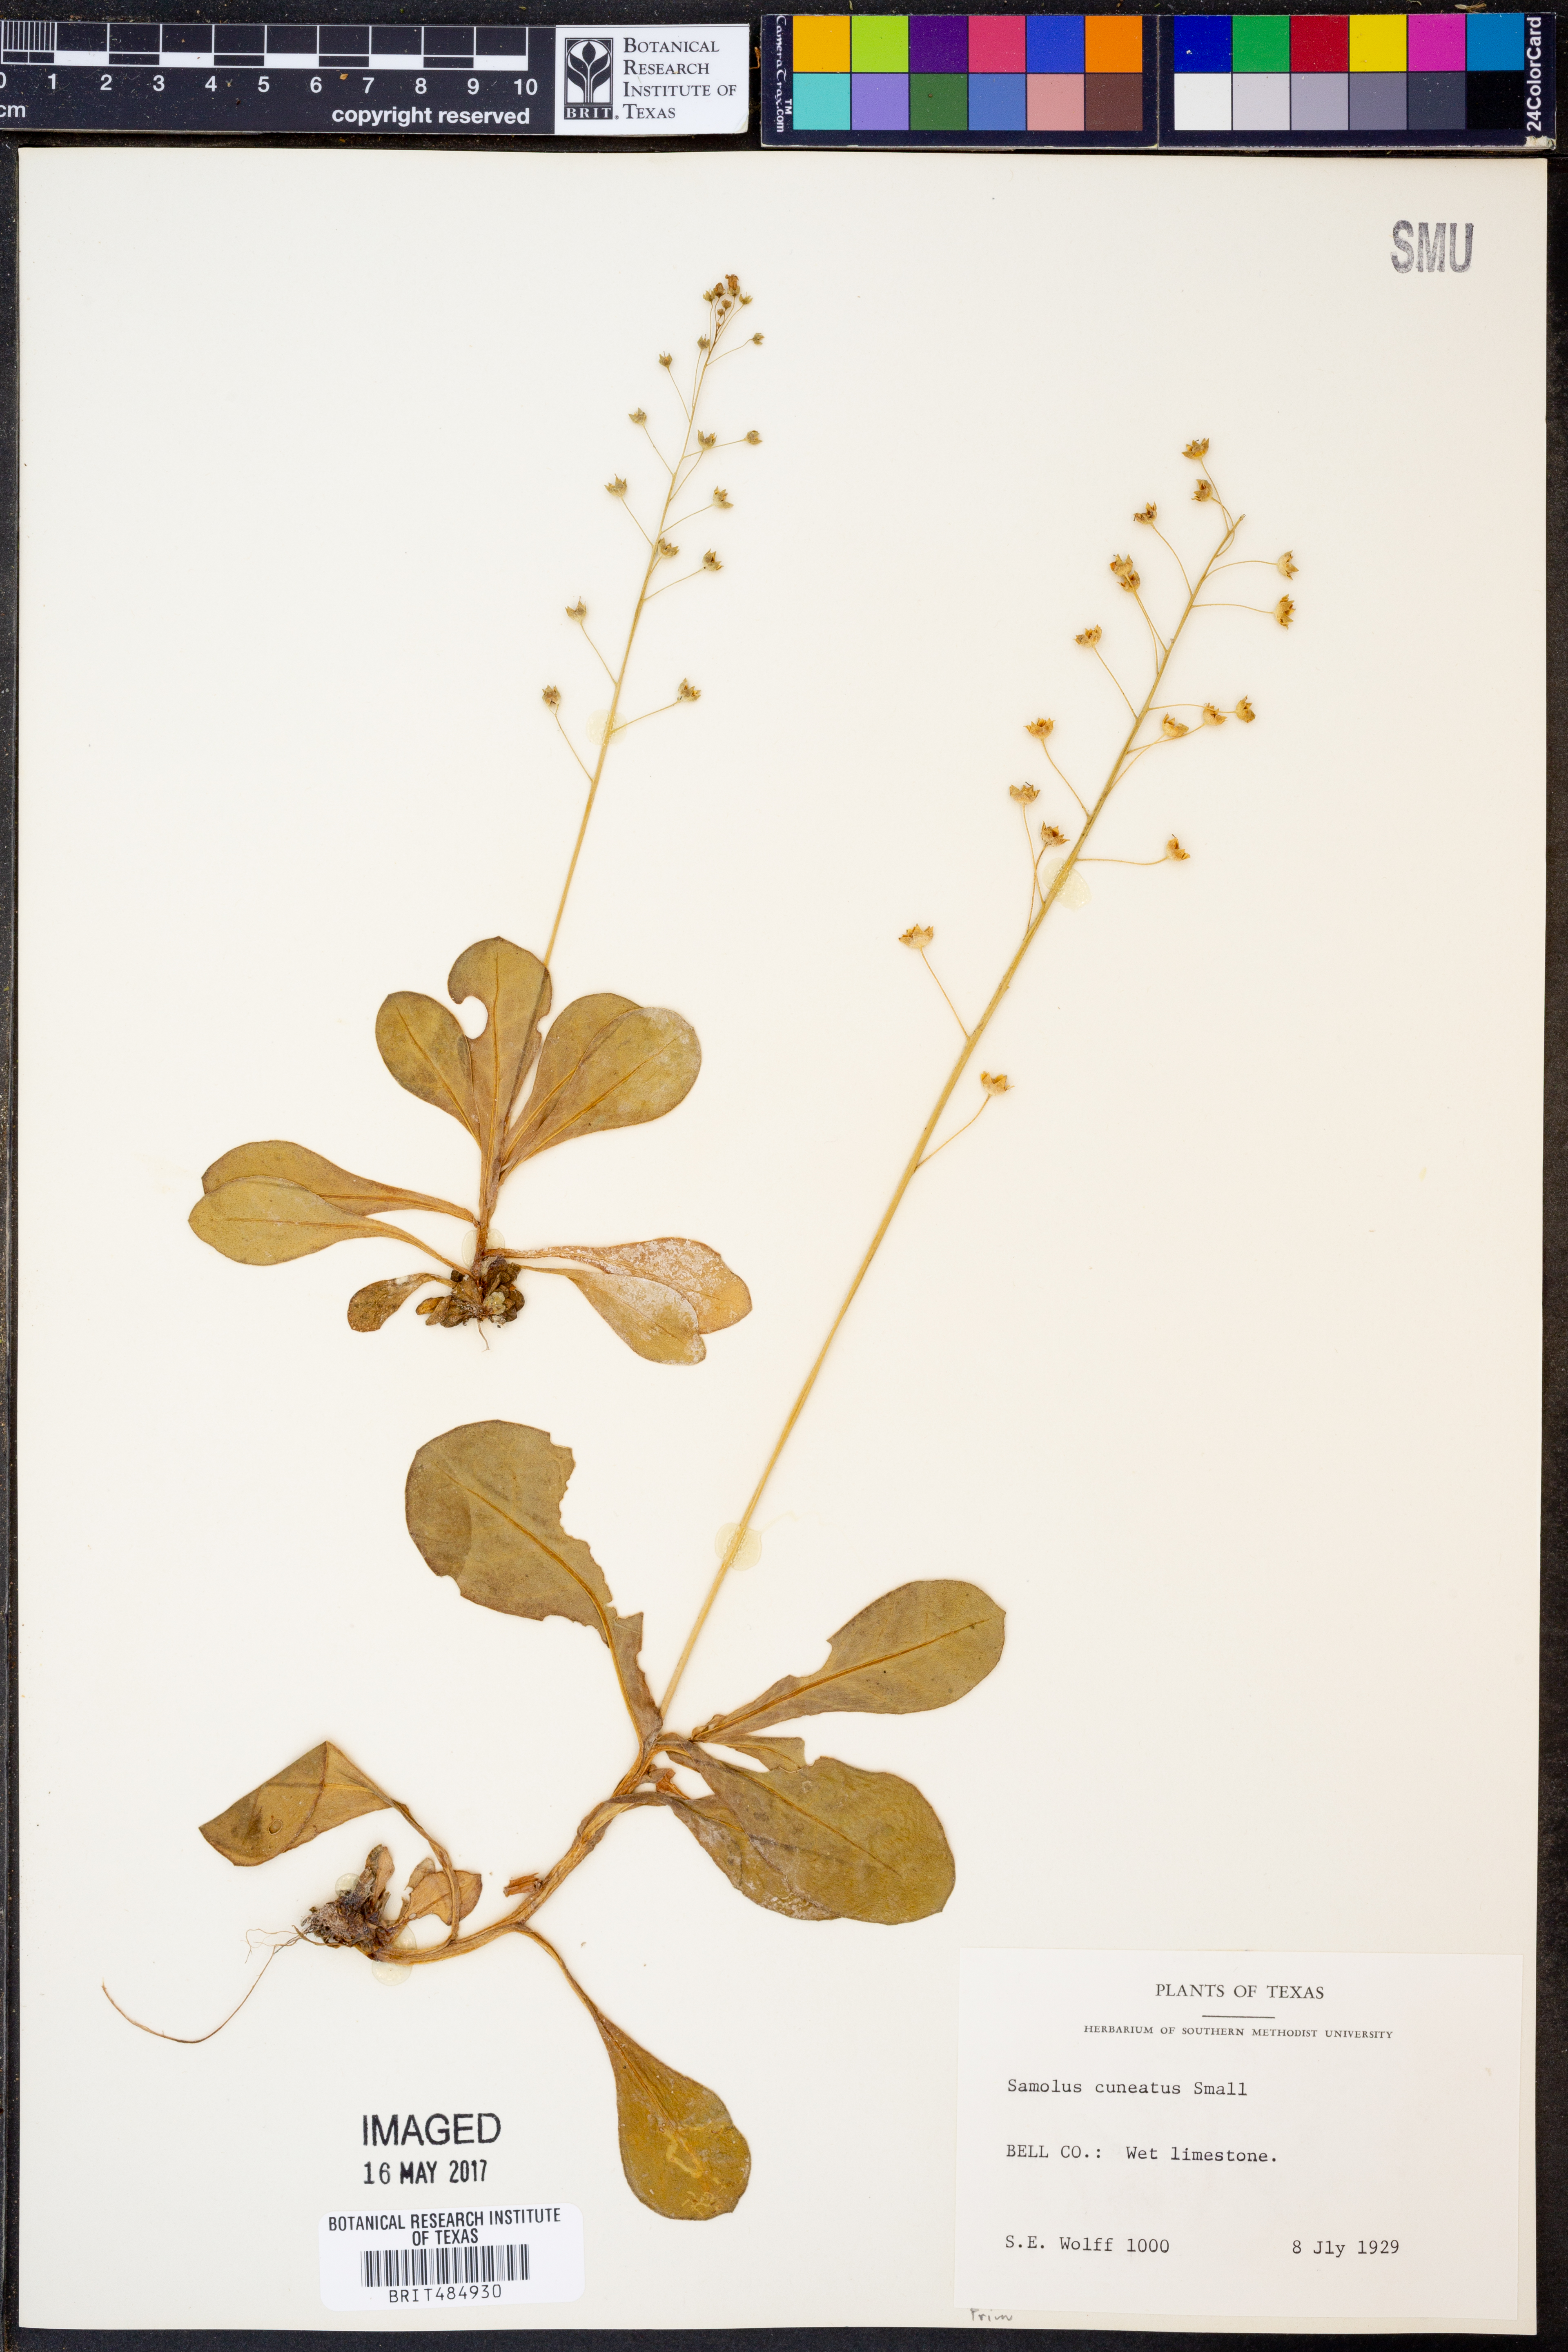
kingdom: Plantae
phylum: Tracheophyta
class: Magnoliopsida
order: Ericales
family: Primulaceae
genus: Samolus
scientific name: Samolus ebracteatus
